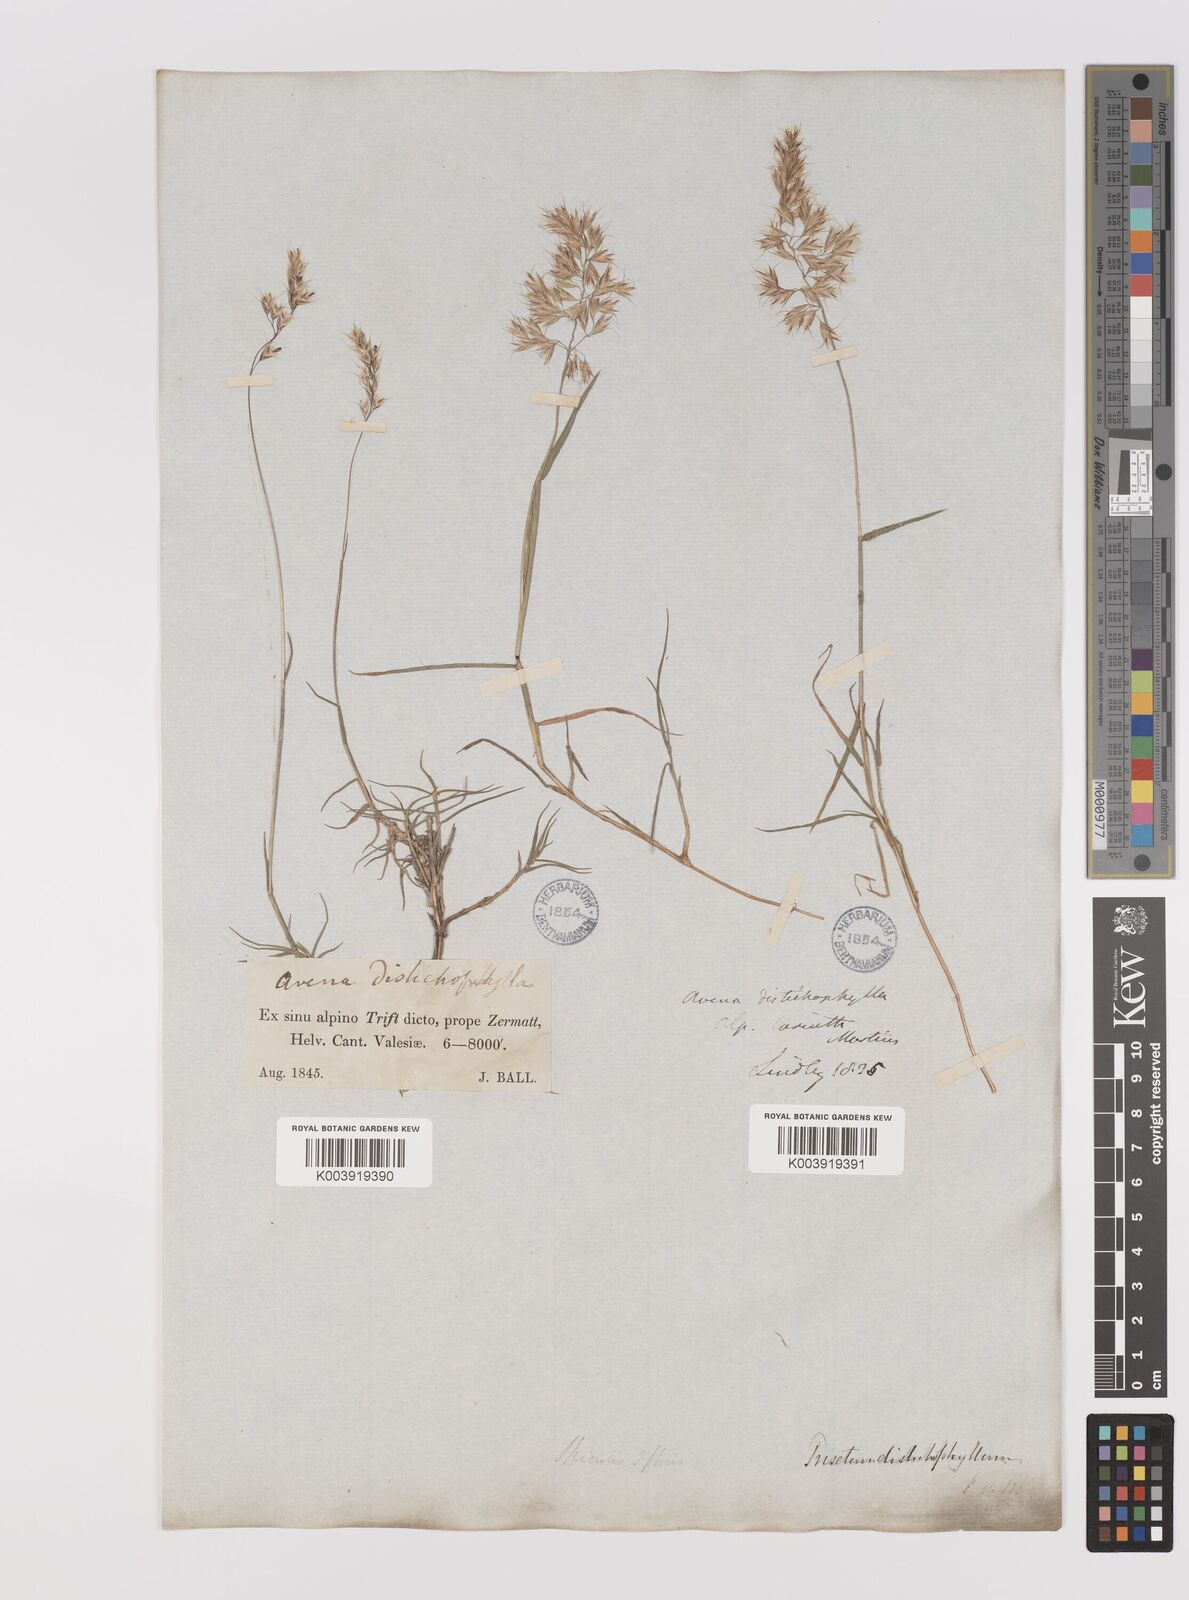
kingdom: Plantae
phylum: Tracheophyta
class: Liliopsida
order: Poales
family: Poaceae
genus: Acrospelion
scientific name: Acrospelion distichophyllum
